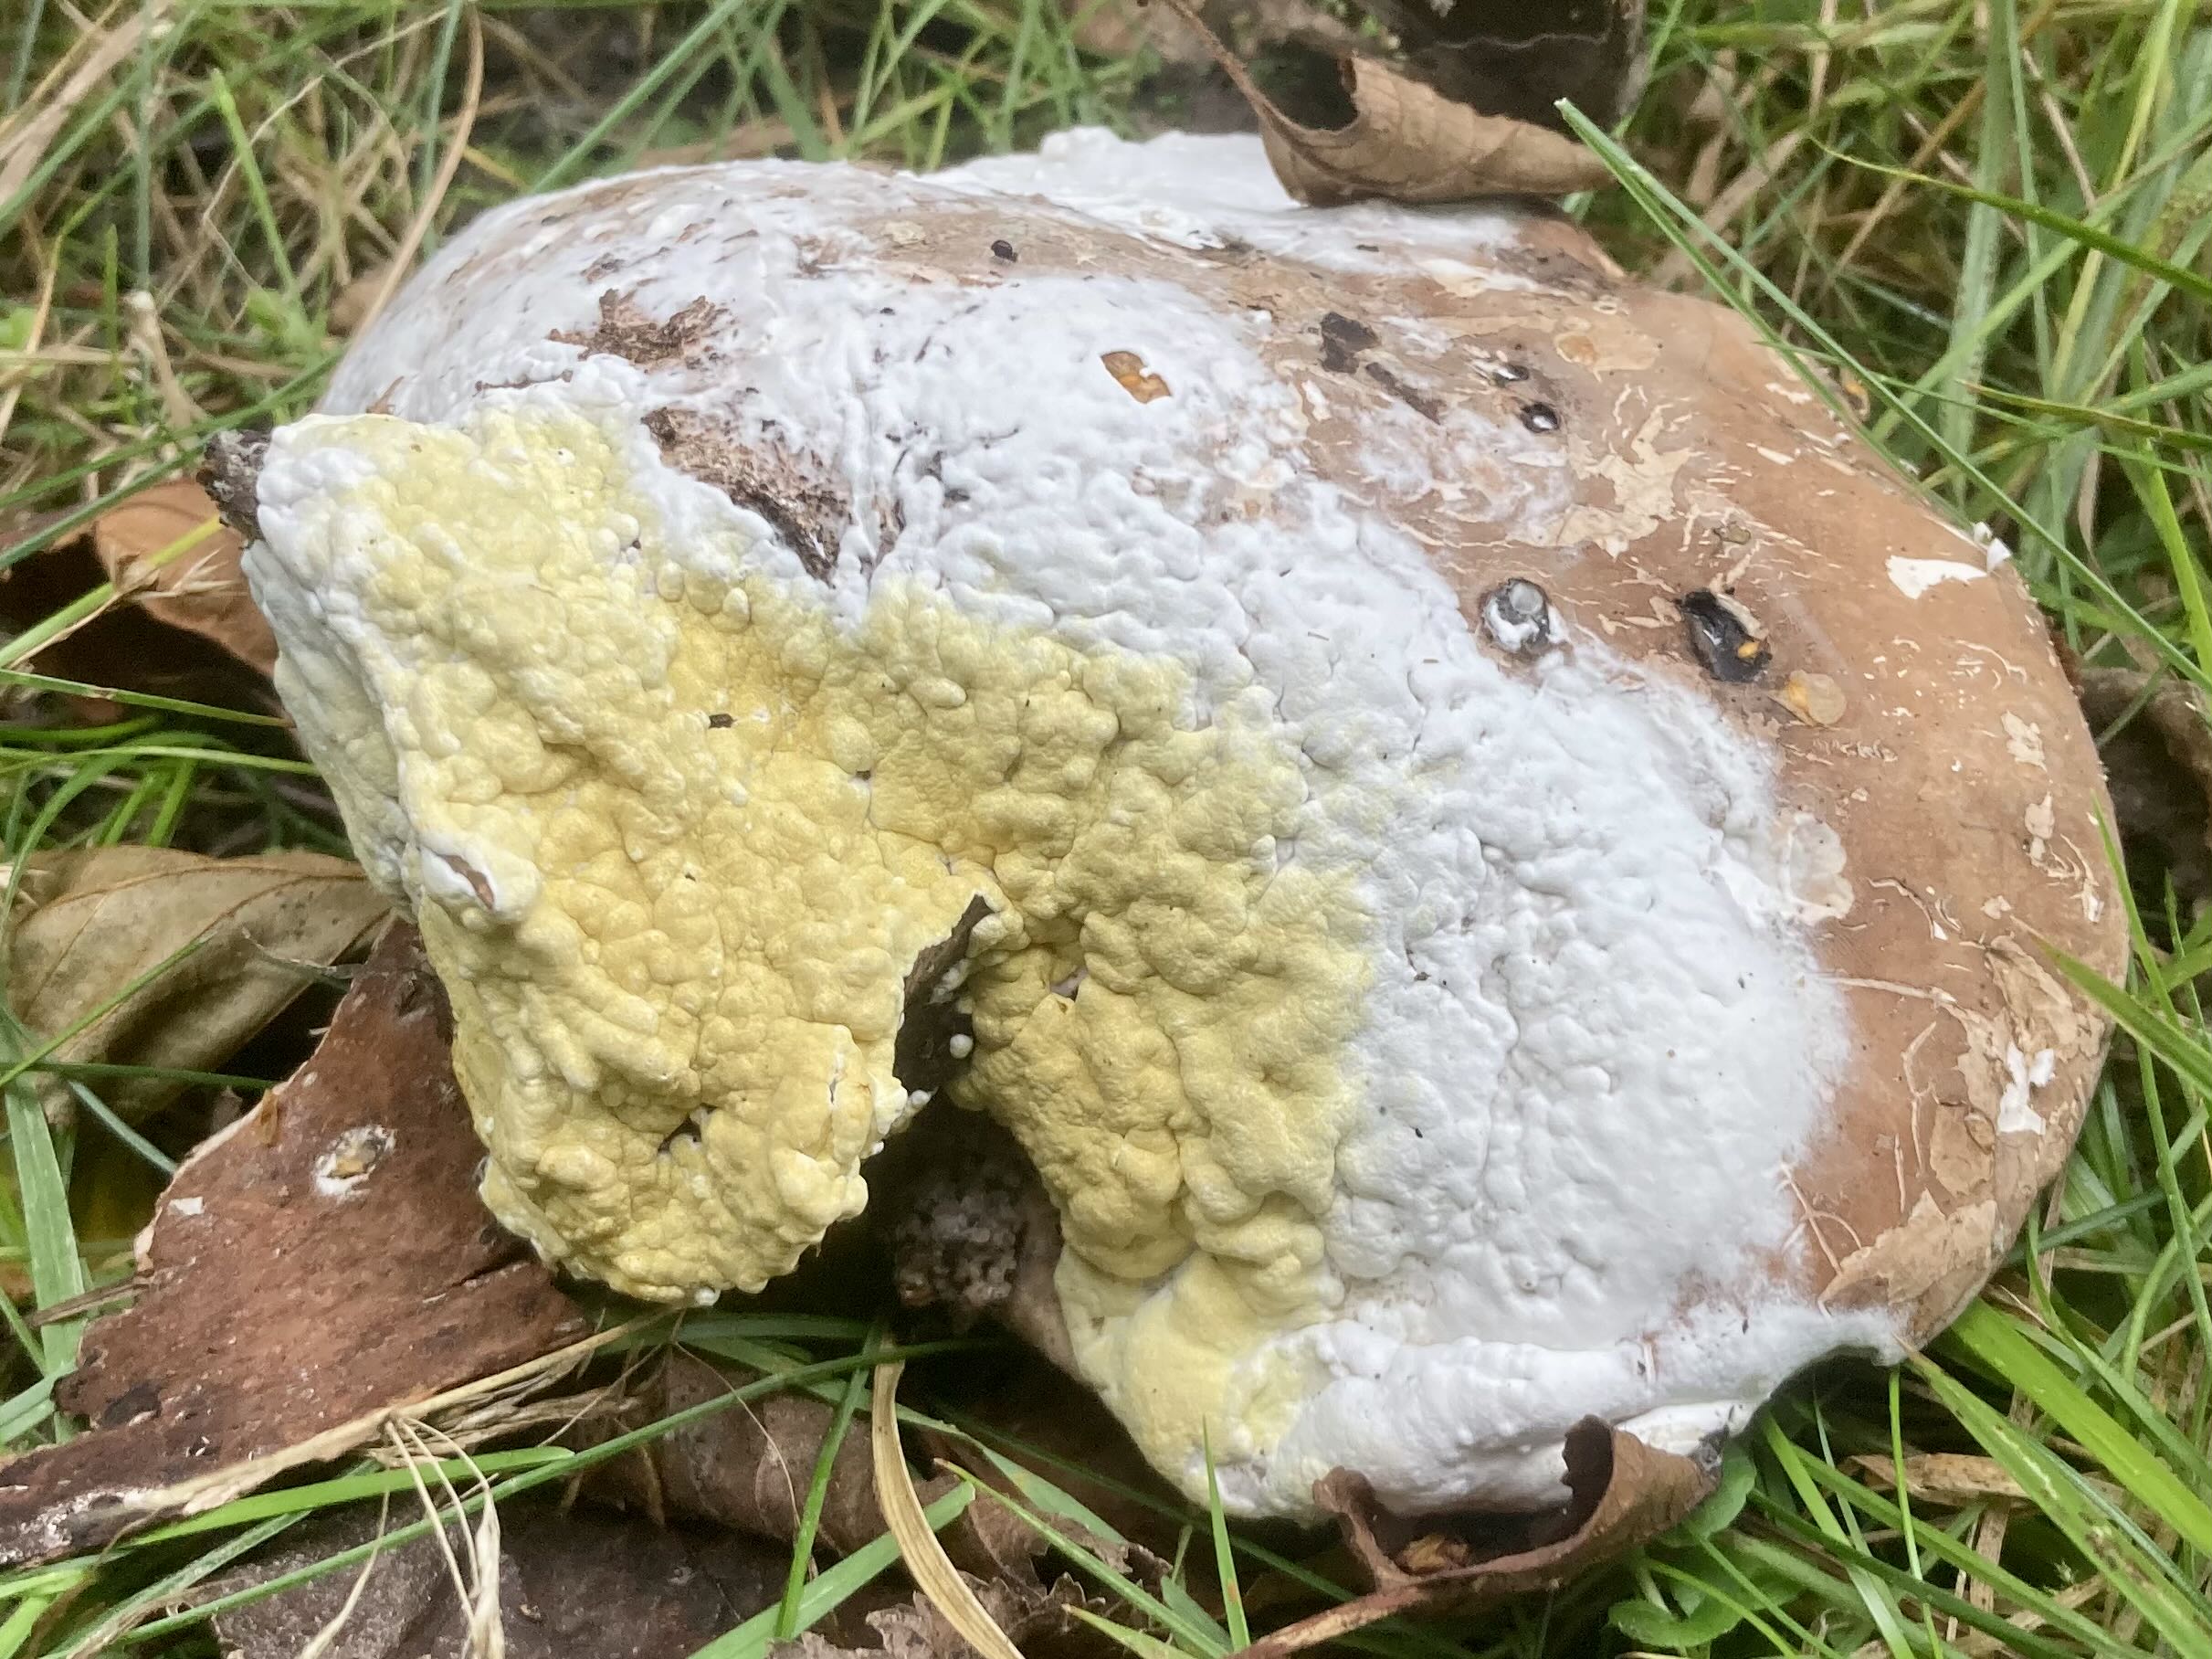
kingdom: Fungi
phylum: Ascomycota
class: Sordariomycetes
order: Hypocreales
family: Hypocreaceae
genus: Trichoderma
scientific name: Trichoderma pulvinatum
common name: snyltende kødkerne
